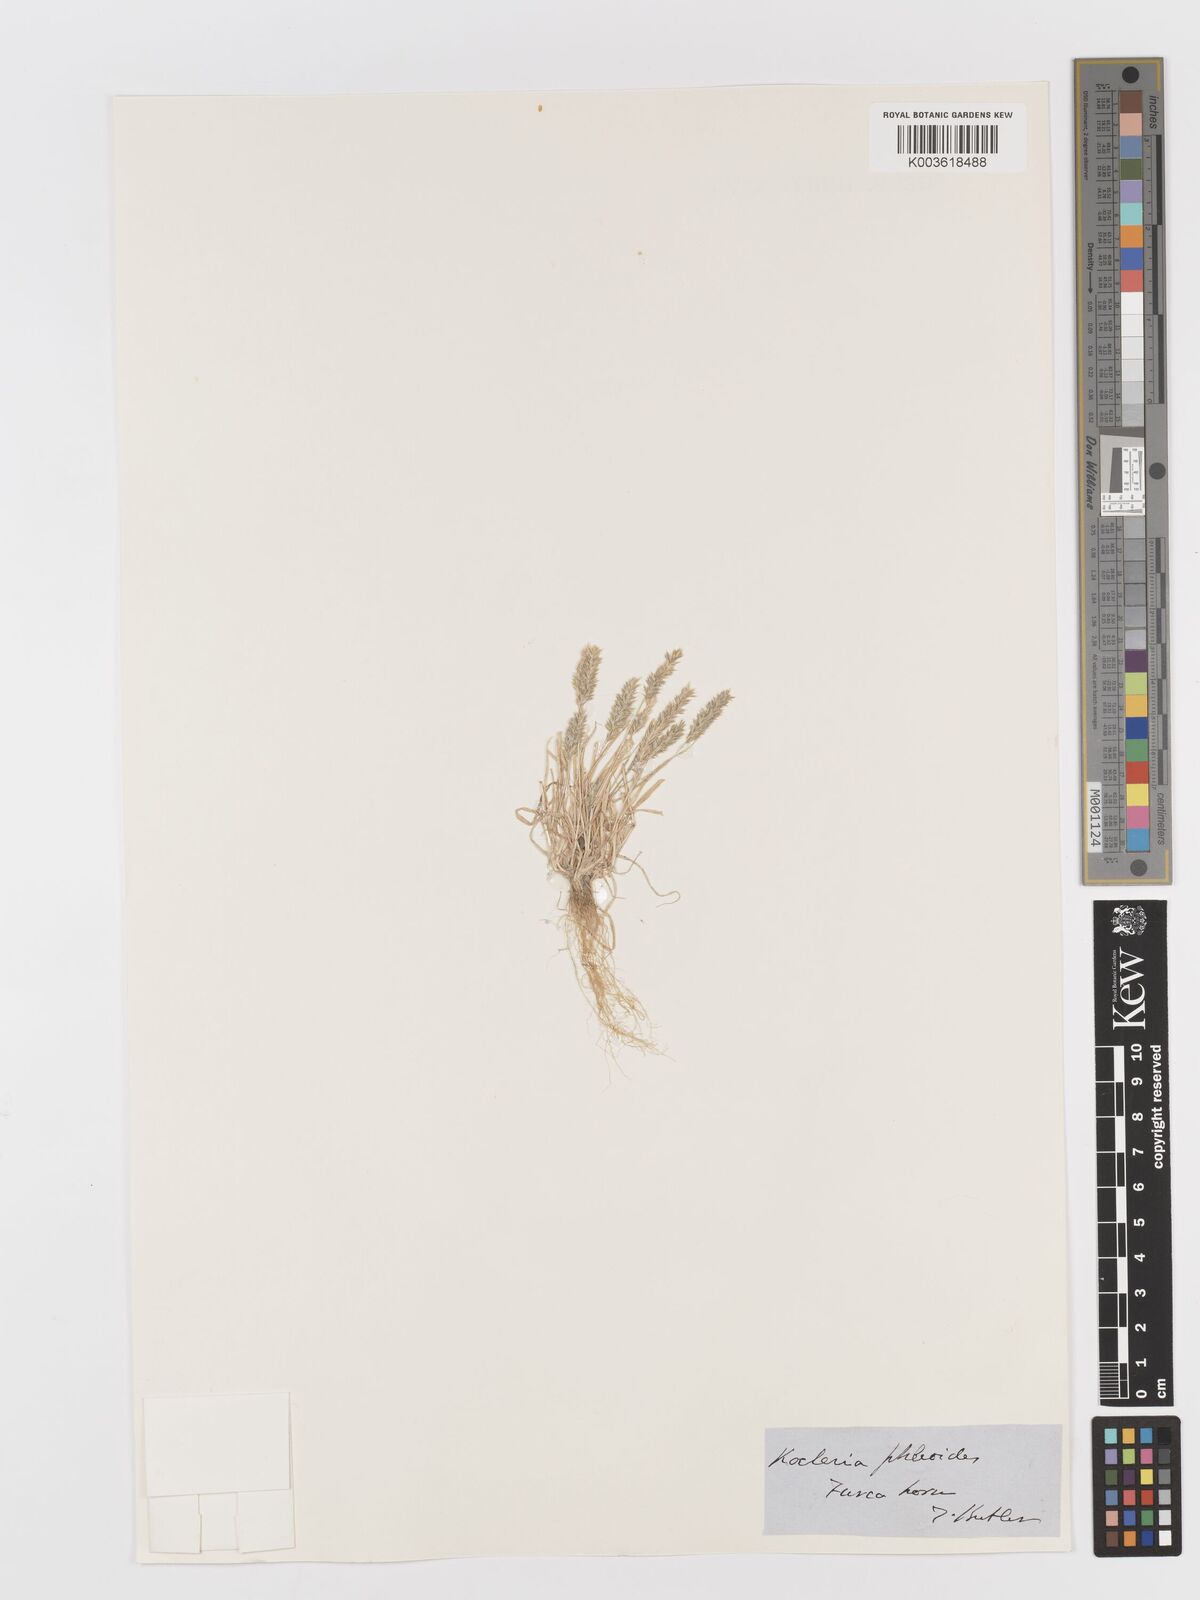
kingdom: Plantae
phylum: Tracheophyta
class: Liliopsida
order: Poales
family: Poaceae
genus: Rostraria
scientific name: Rostraria cristata
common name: Mediterranean hair-grass
